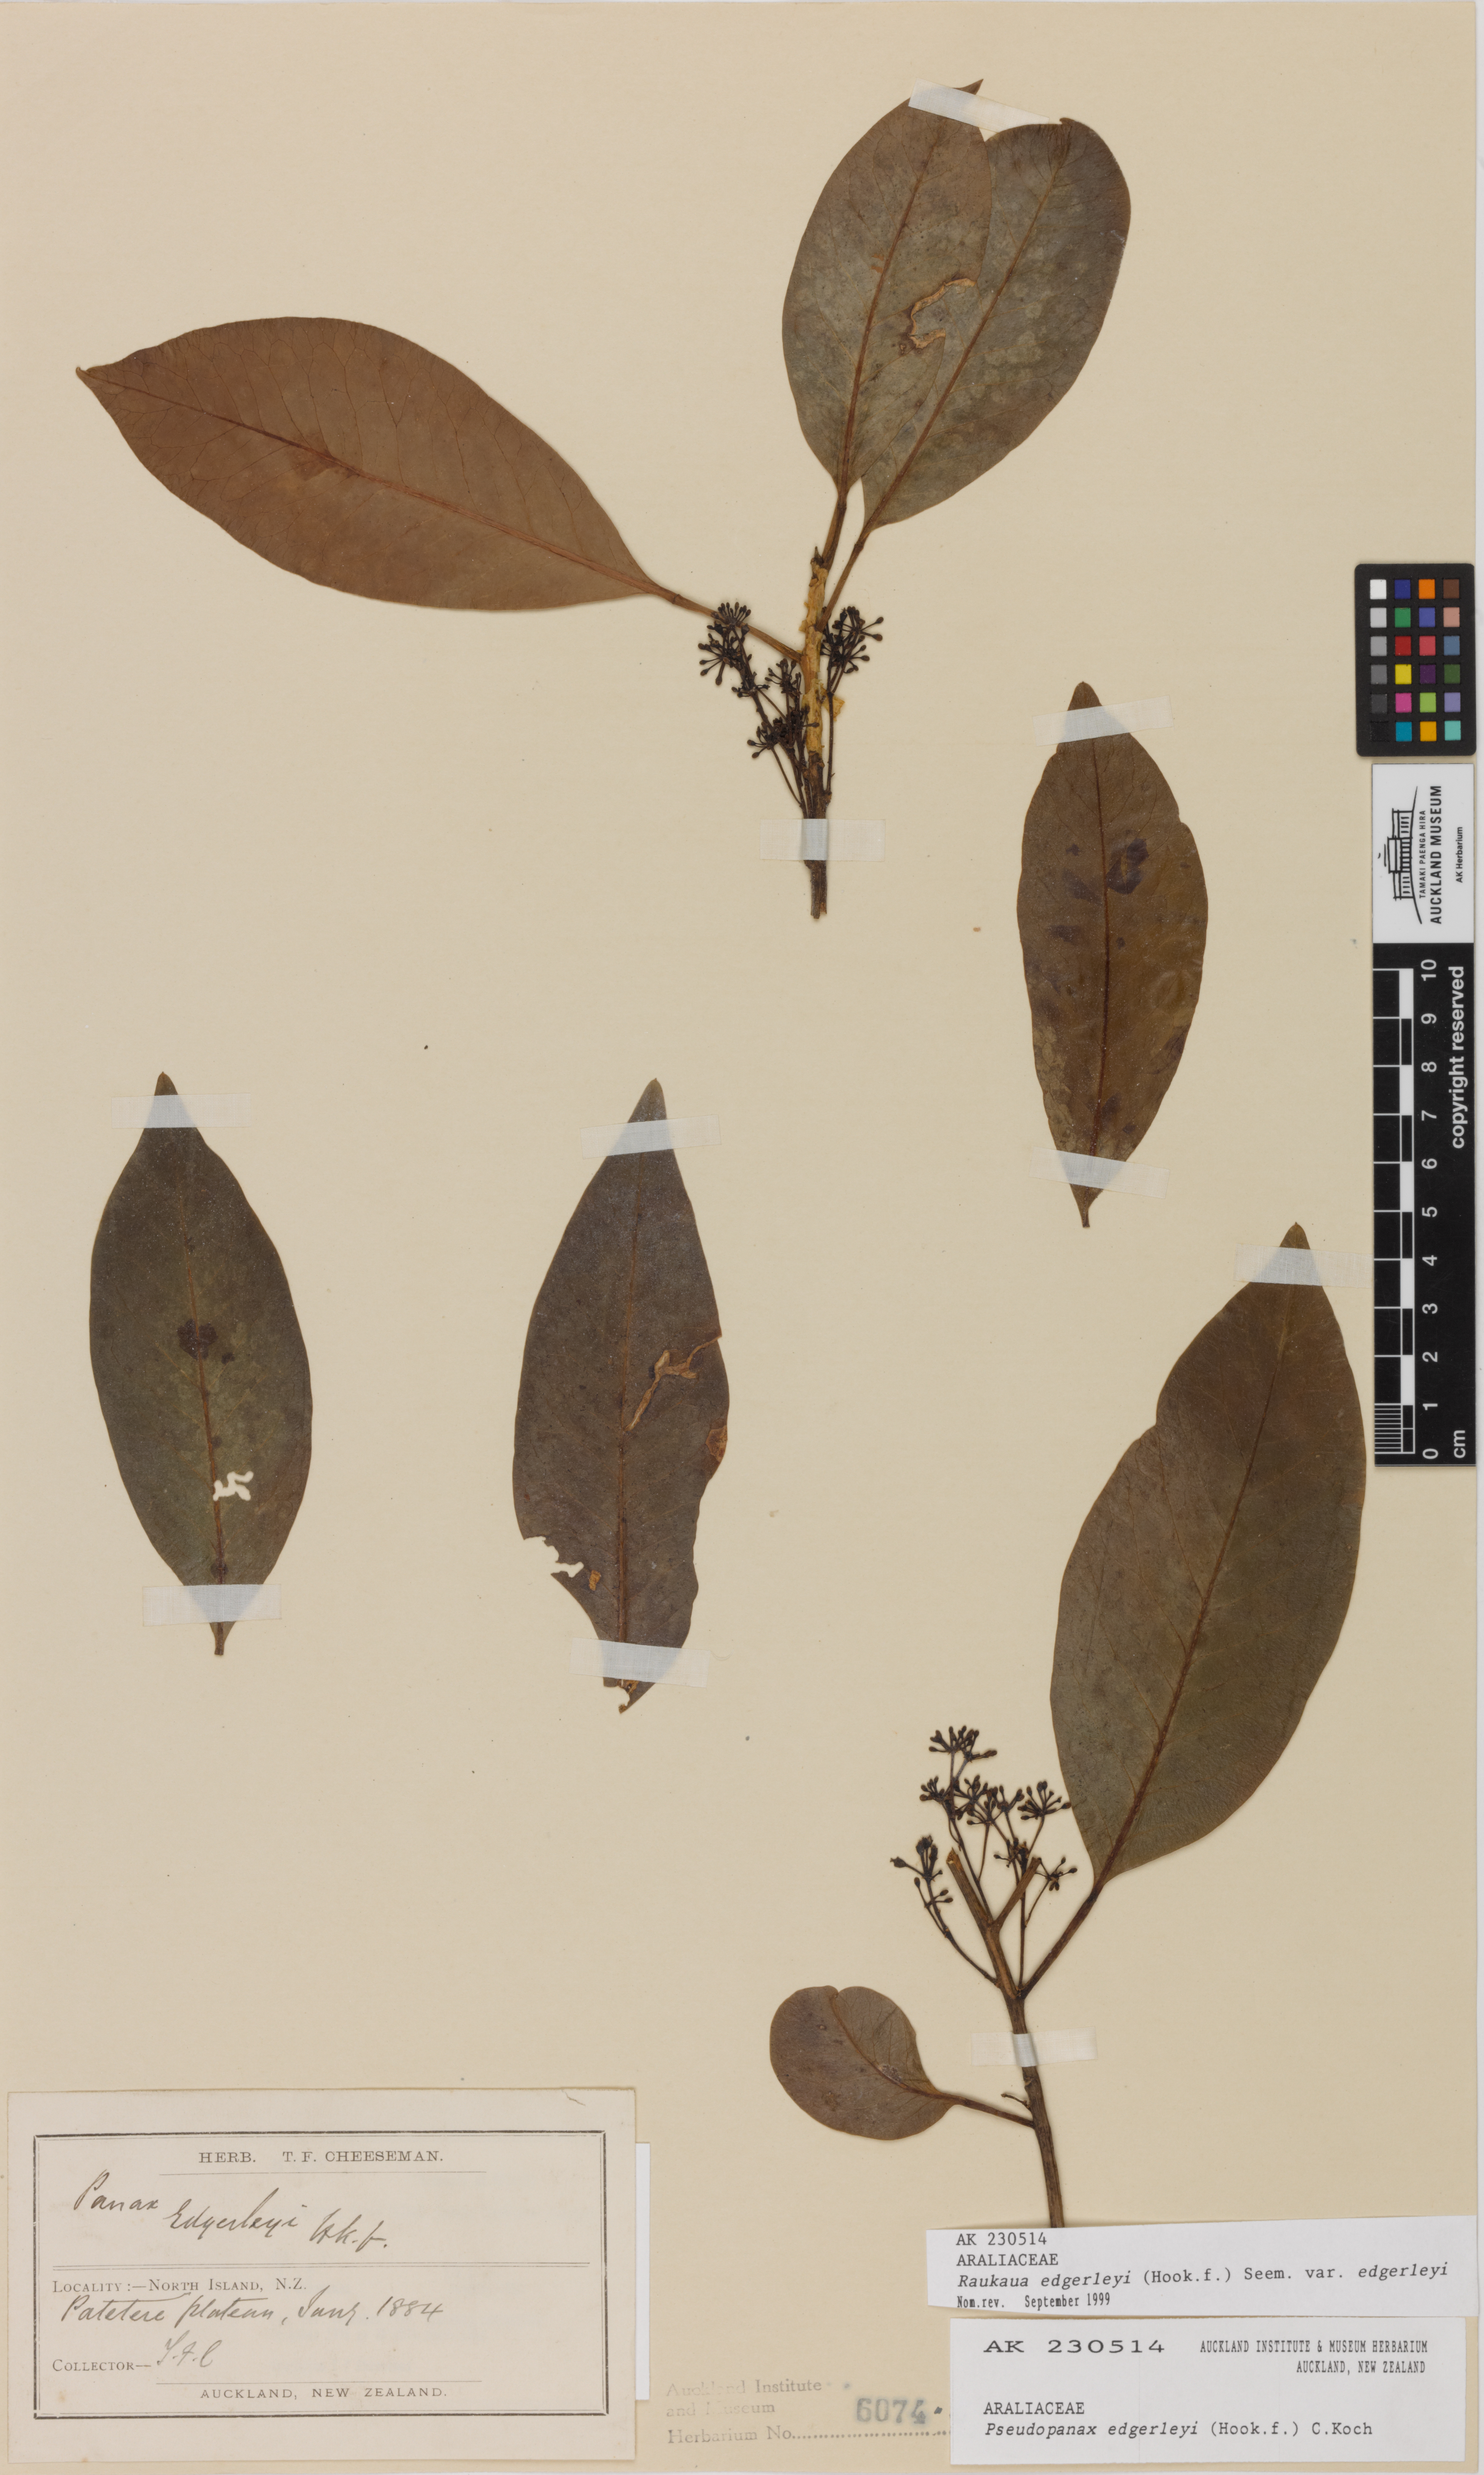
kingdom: Plantae
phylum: Tracheophyta
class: Magnoliopsida
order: Apiales
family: Araliaceae
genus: Raukaua
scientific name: Raukaua edgerleyi
